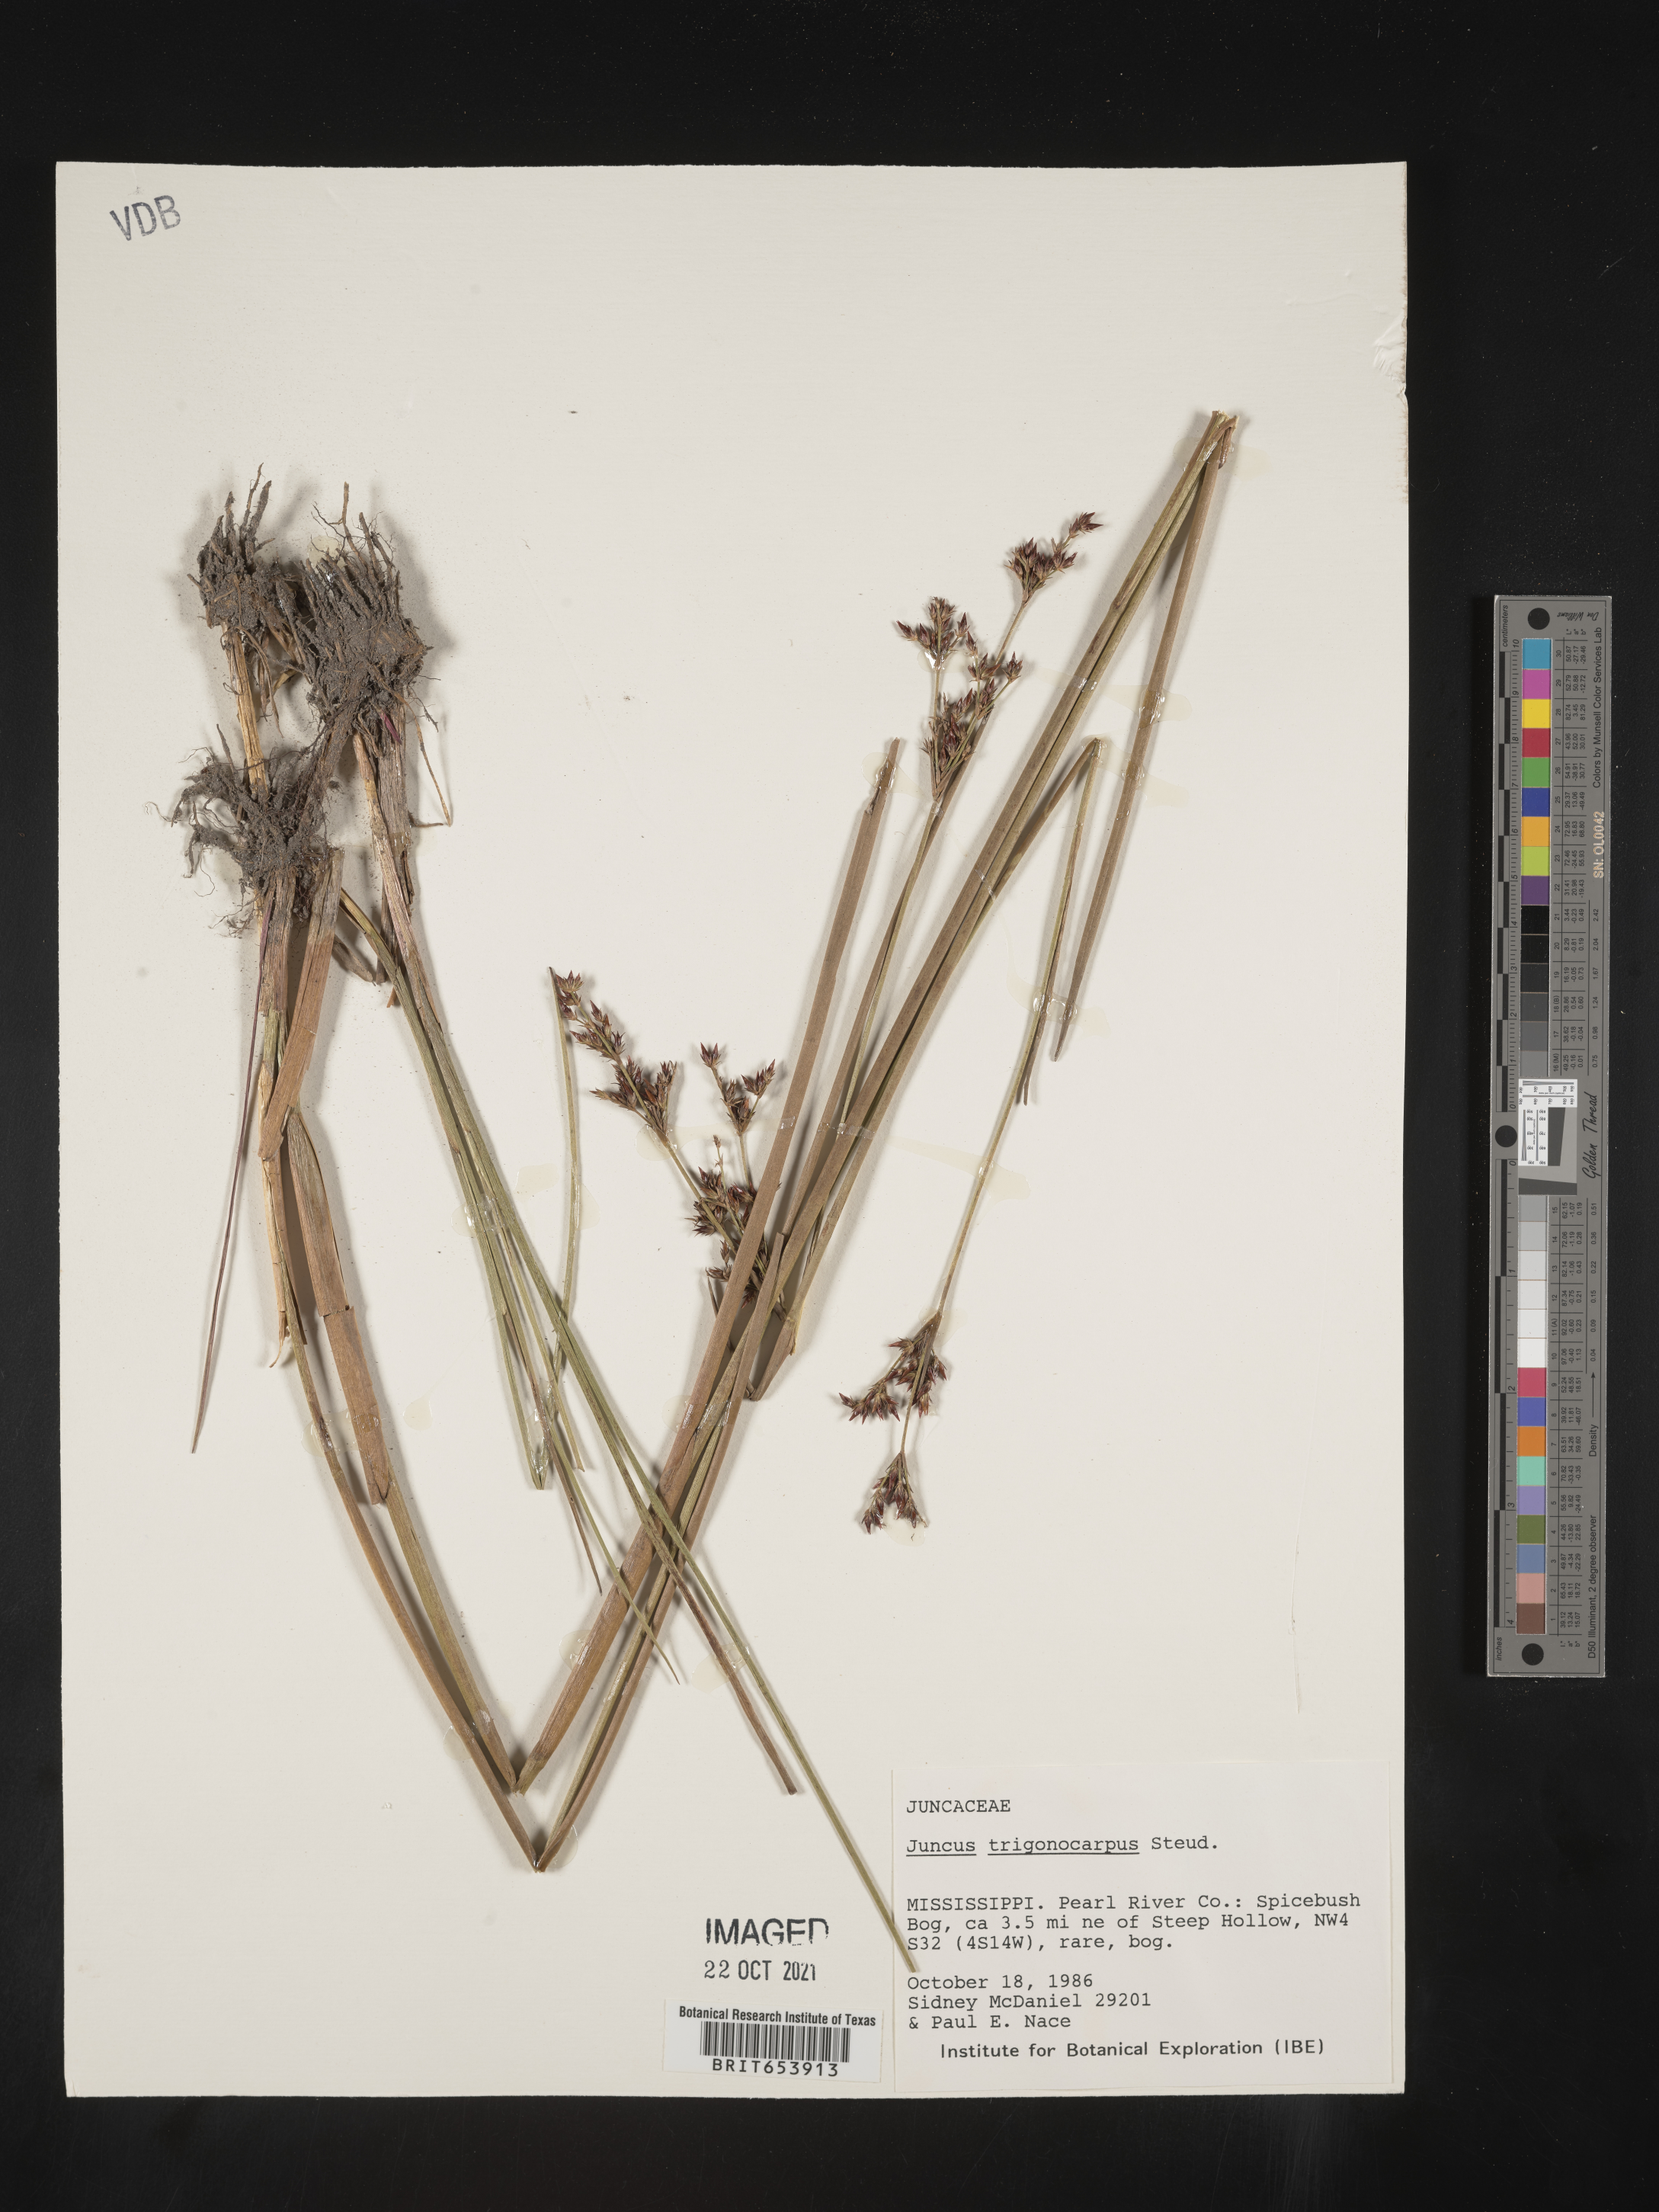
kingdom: Plantae
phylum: Tracheophyta
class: Liliopsida
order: Poales
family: Juncaceae
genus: Juncus
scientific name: Juncus trigonocarpus
